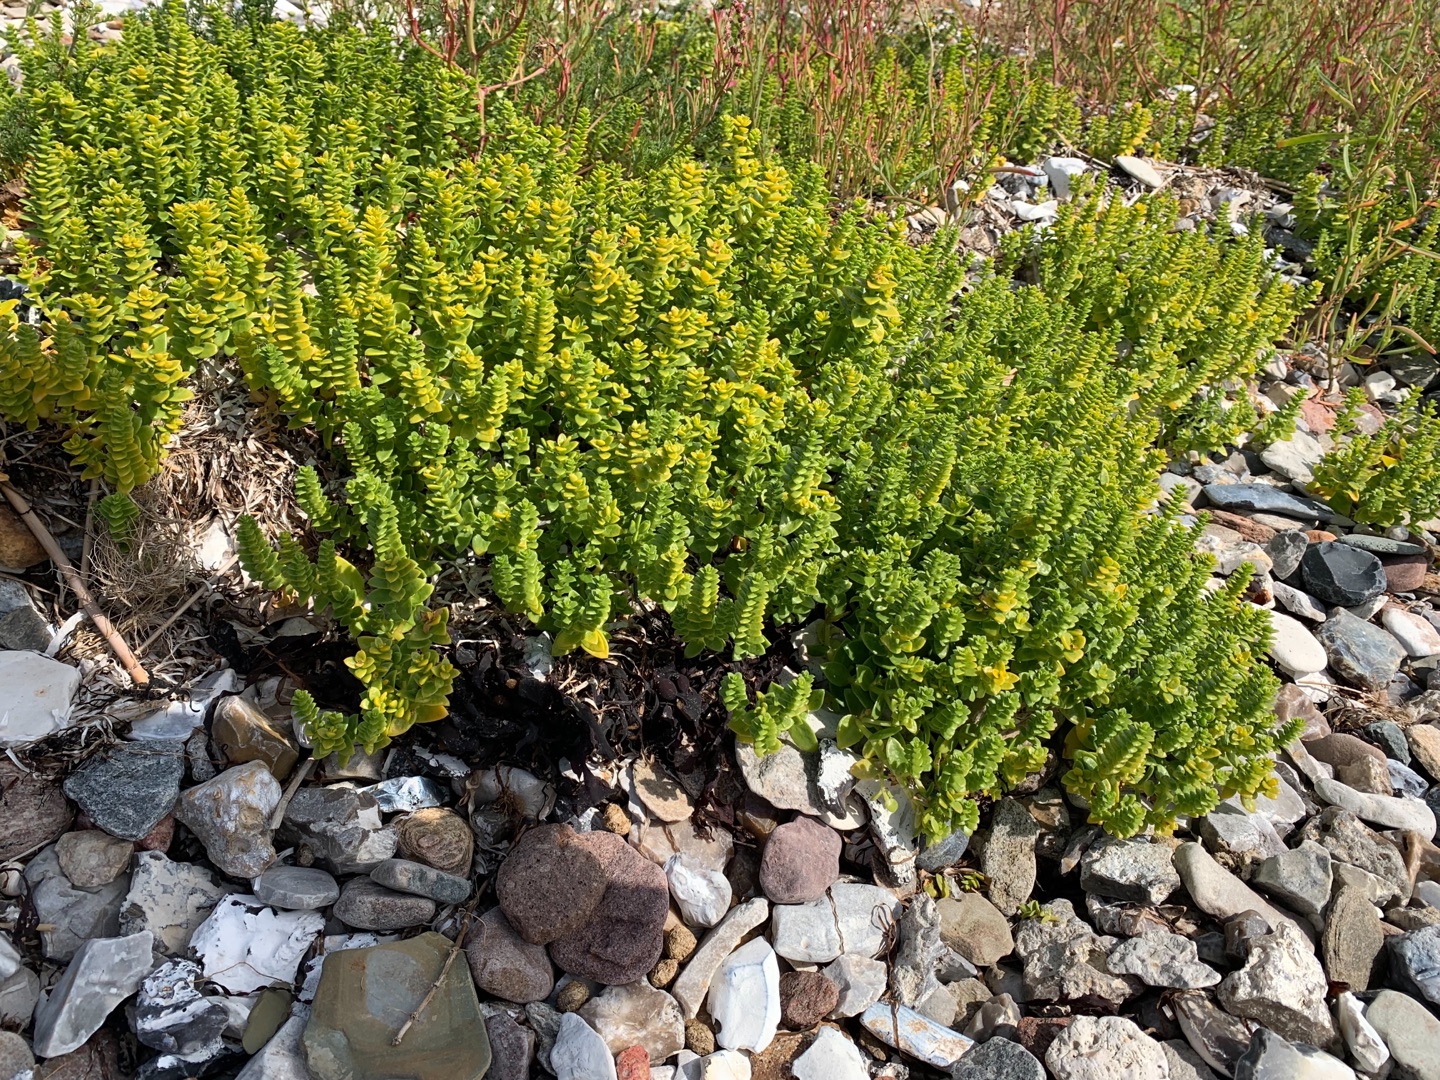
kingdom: Plantae
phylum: Tracheophyta
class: Magnoliopsida
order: Caryophyllales
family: Caryophyllaceae
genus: Honckenya
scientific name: Honckenya peploides
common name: Strandarve
